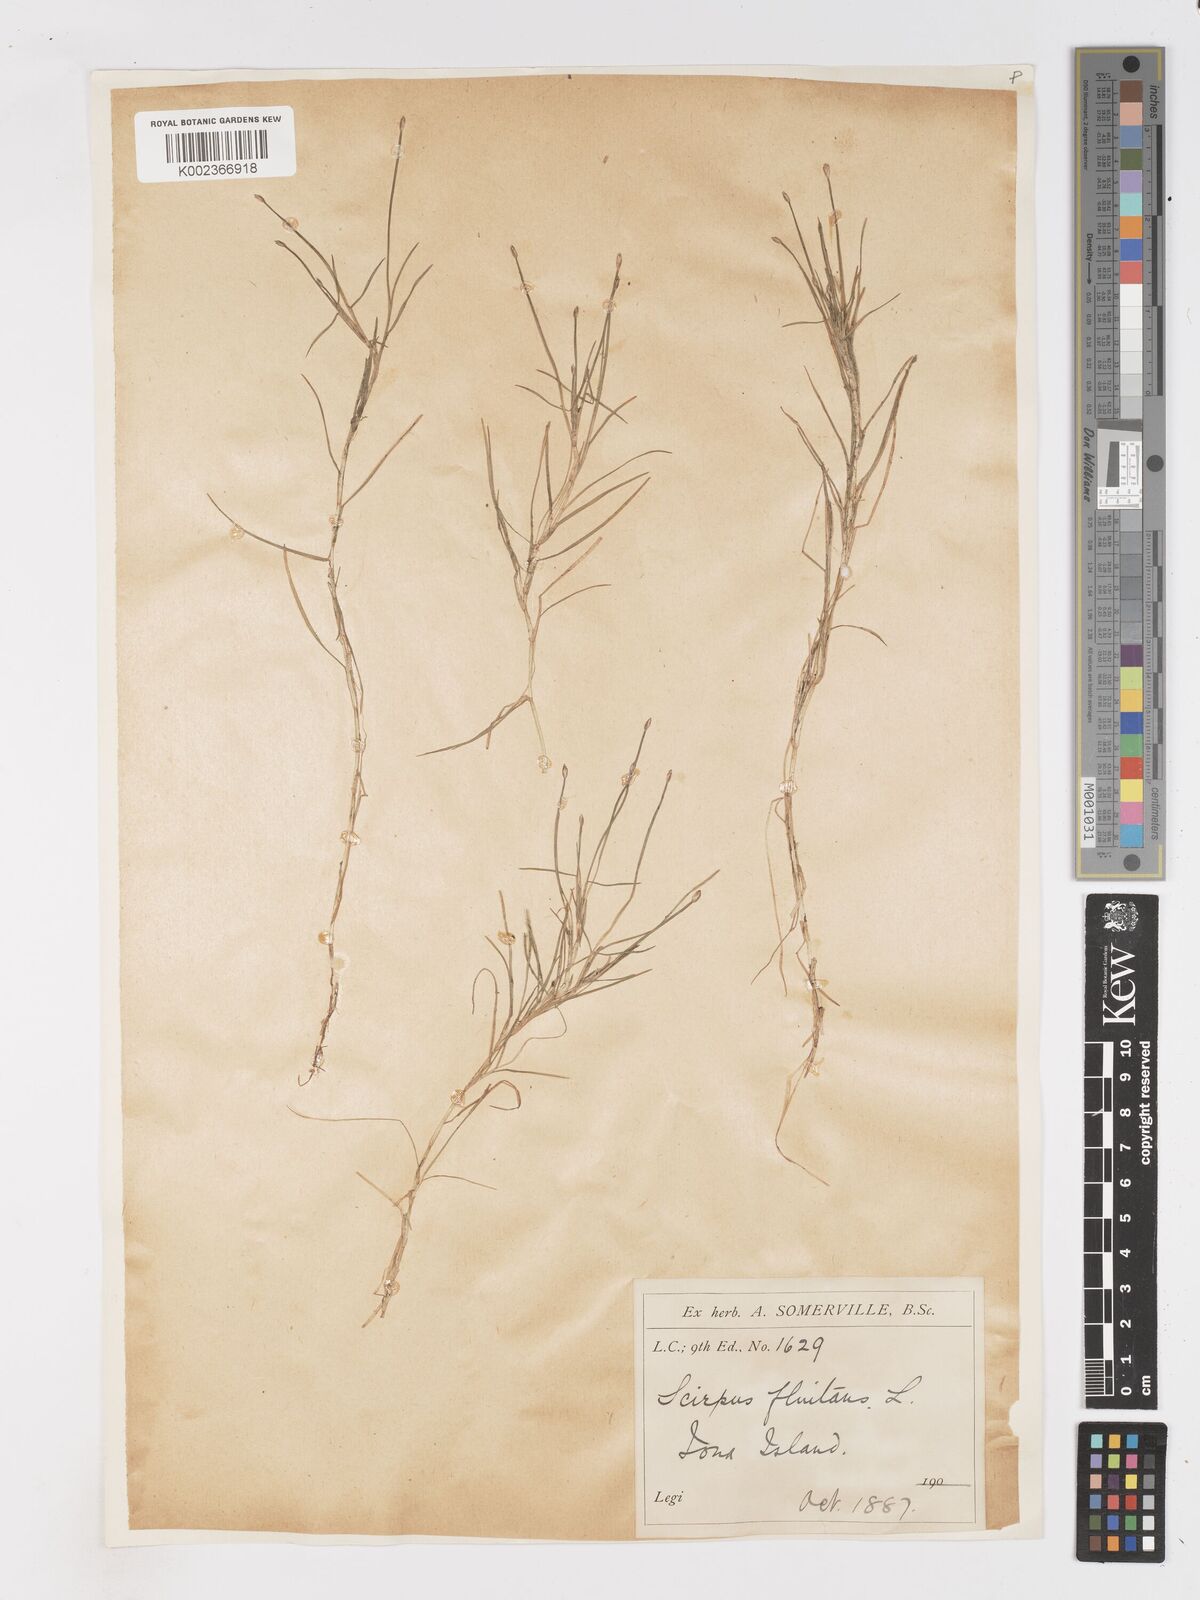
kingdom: Plantae
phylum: Tracheophyta
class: Liliopsida
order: Poales
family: Cyperaceae
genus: Isolepis
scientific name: Isolepis fluitans
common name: Floating club-rush
